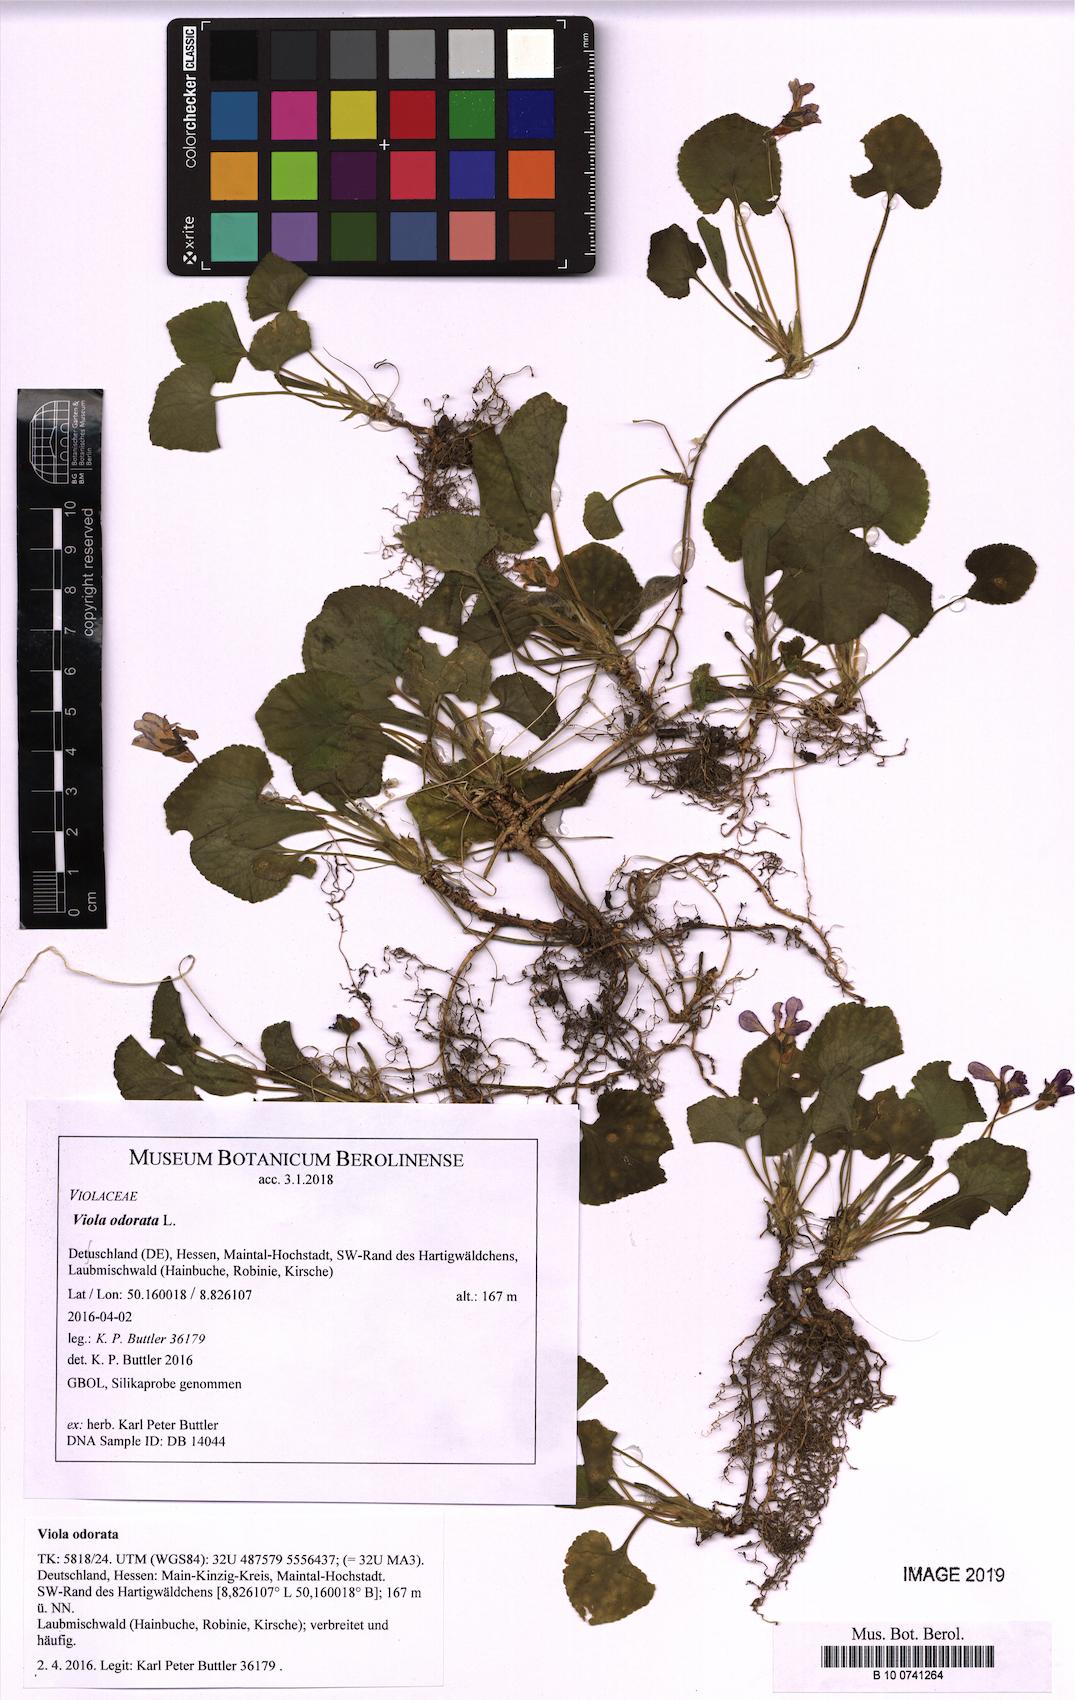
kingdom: Plantae
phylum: Tracheophyta
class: Magnoliopsida
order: Malpighiales
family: Violaceae
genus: Viola
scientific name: Viola odorata
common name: Sweet violet
